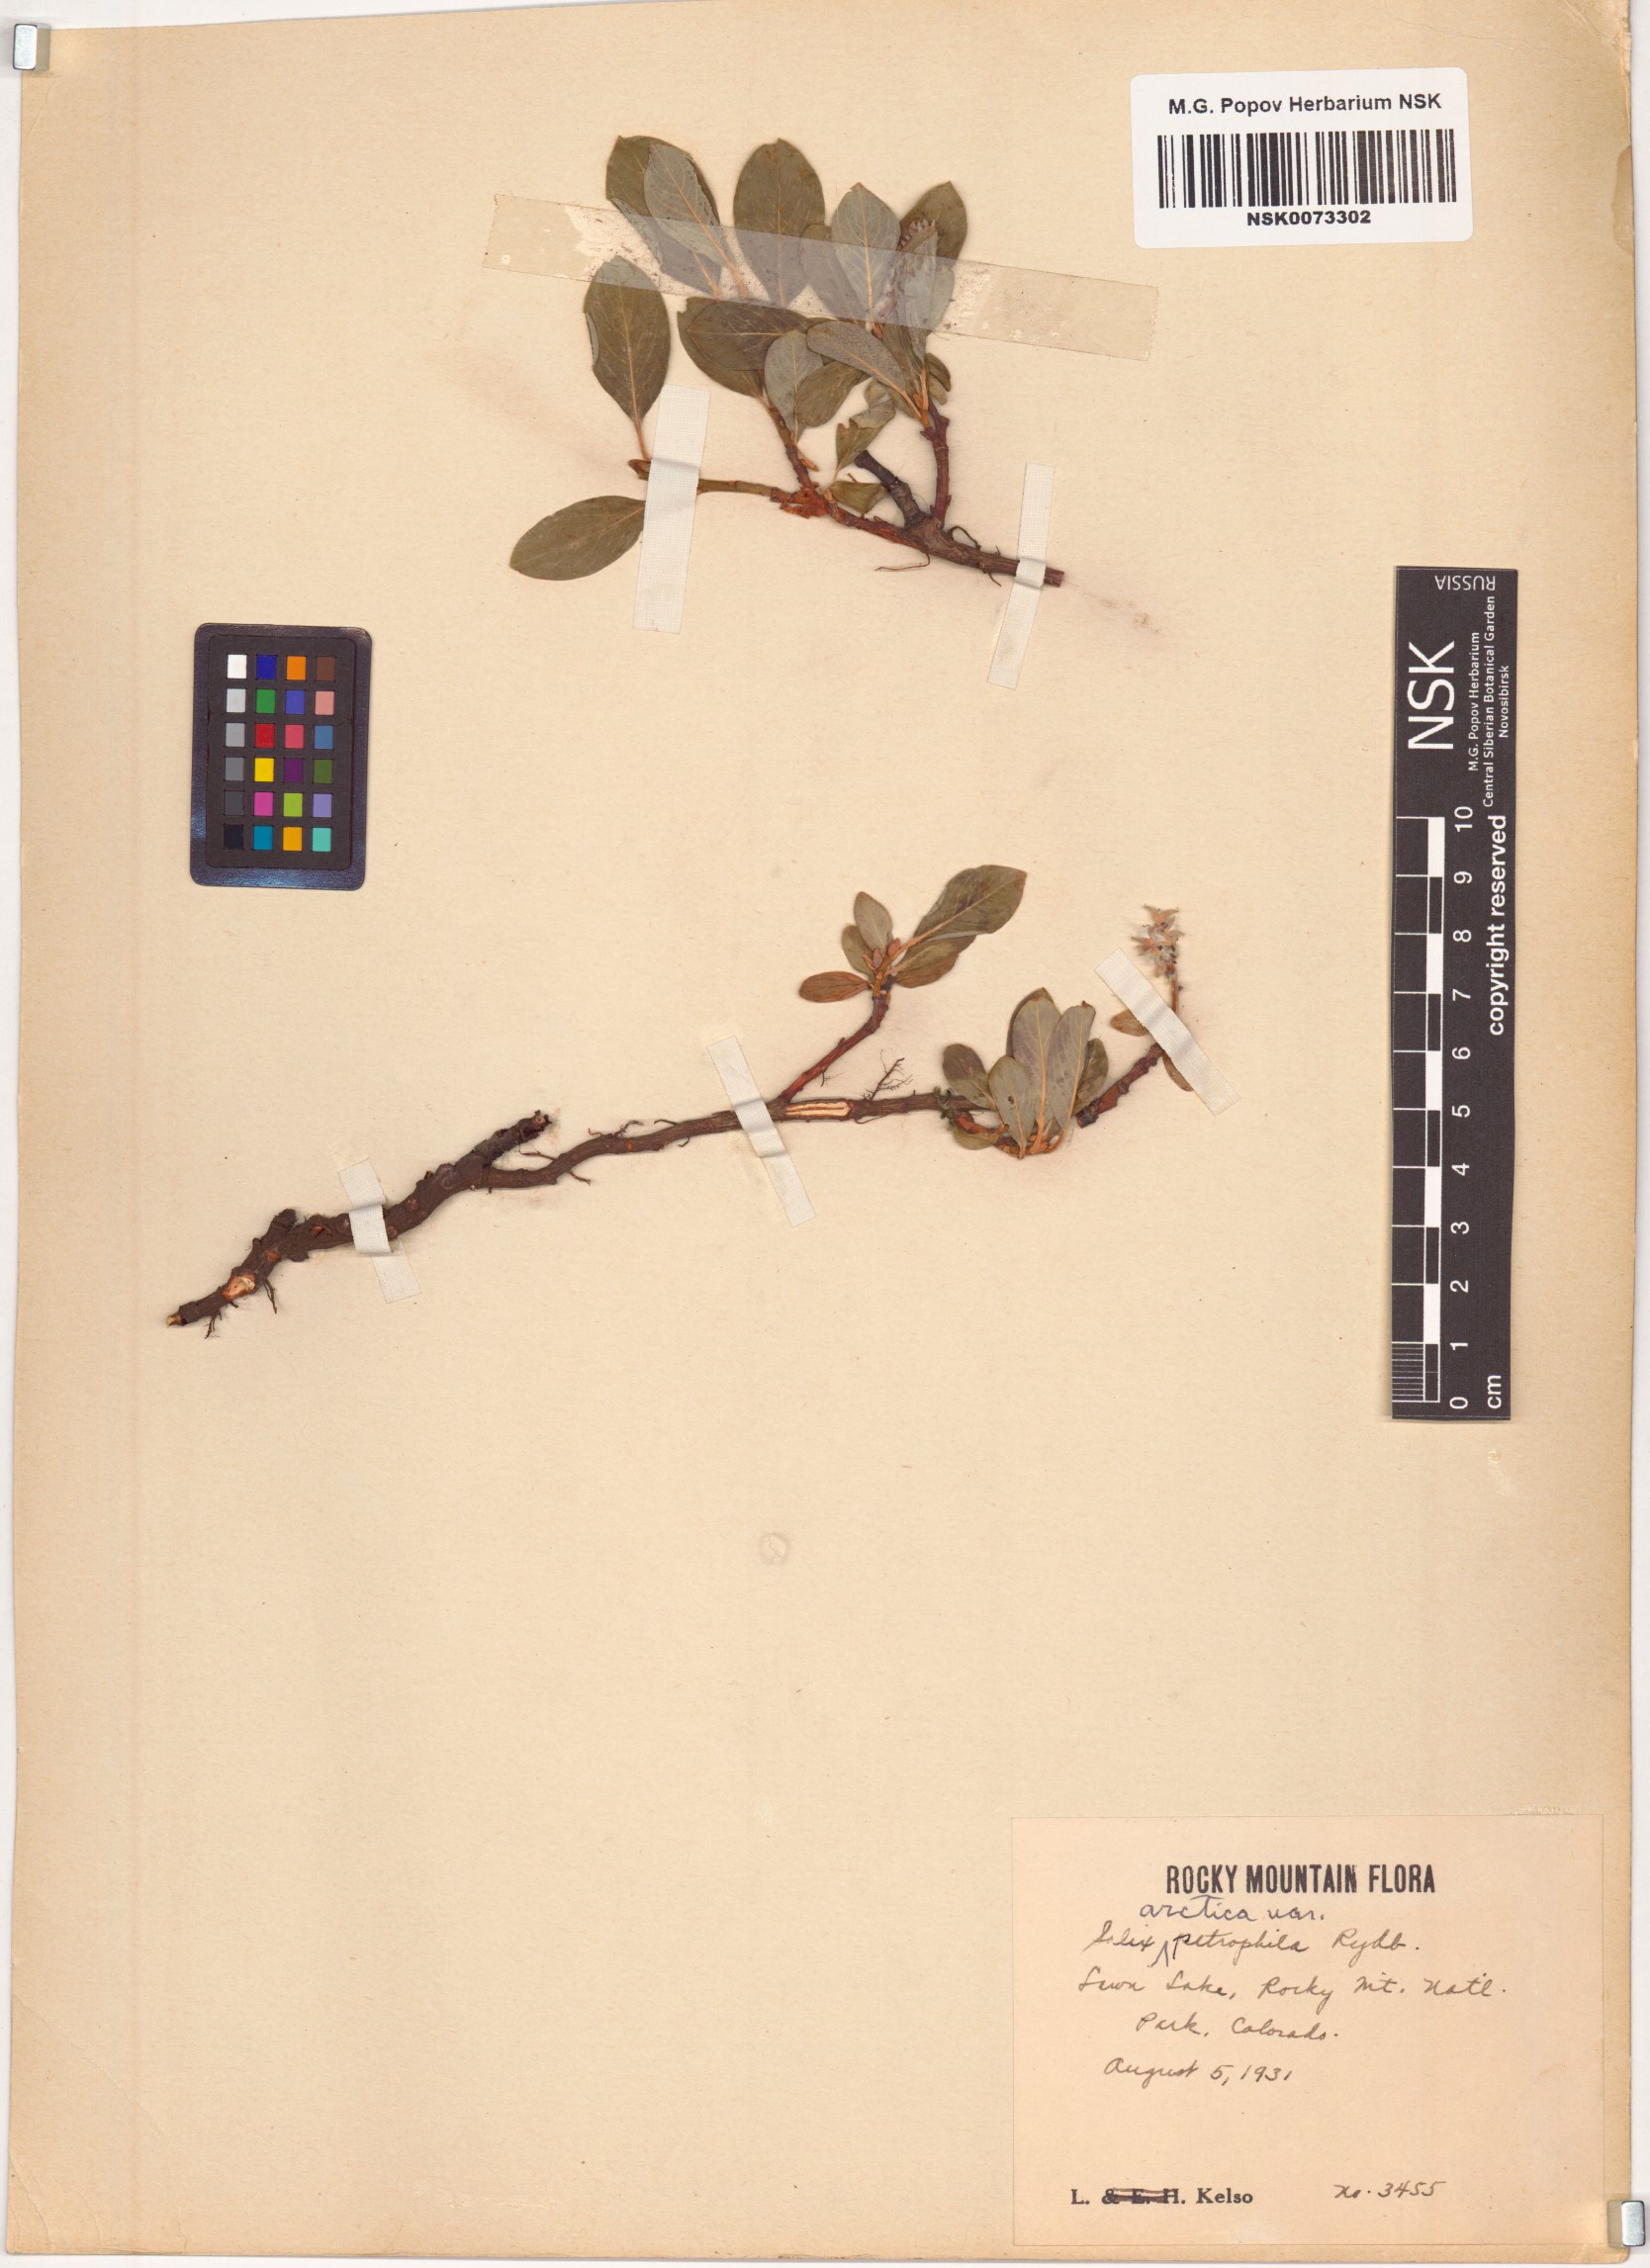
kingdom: Plantae
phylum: Tracheophyta
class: Magnoliopsida
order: Malpighiales
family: Salicaceae
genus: Salix
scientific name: Salix petrophila
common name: Rocky mountain willow
